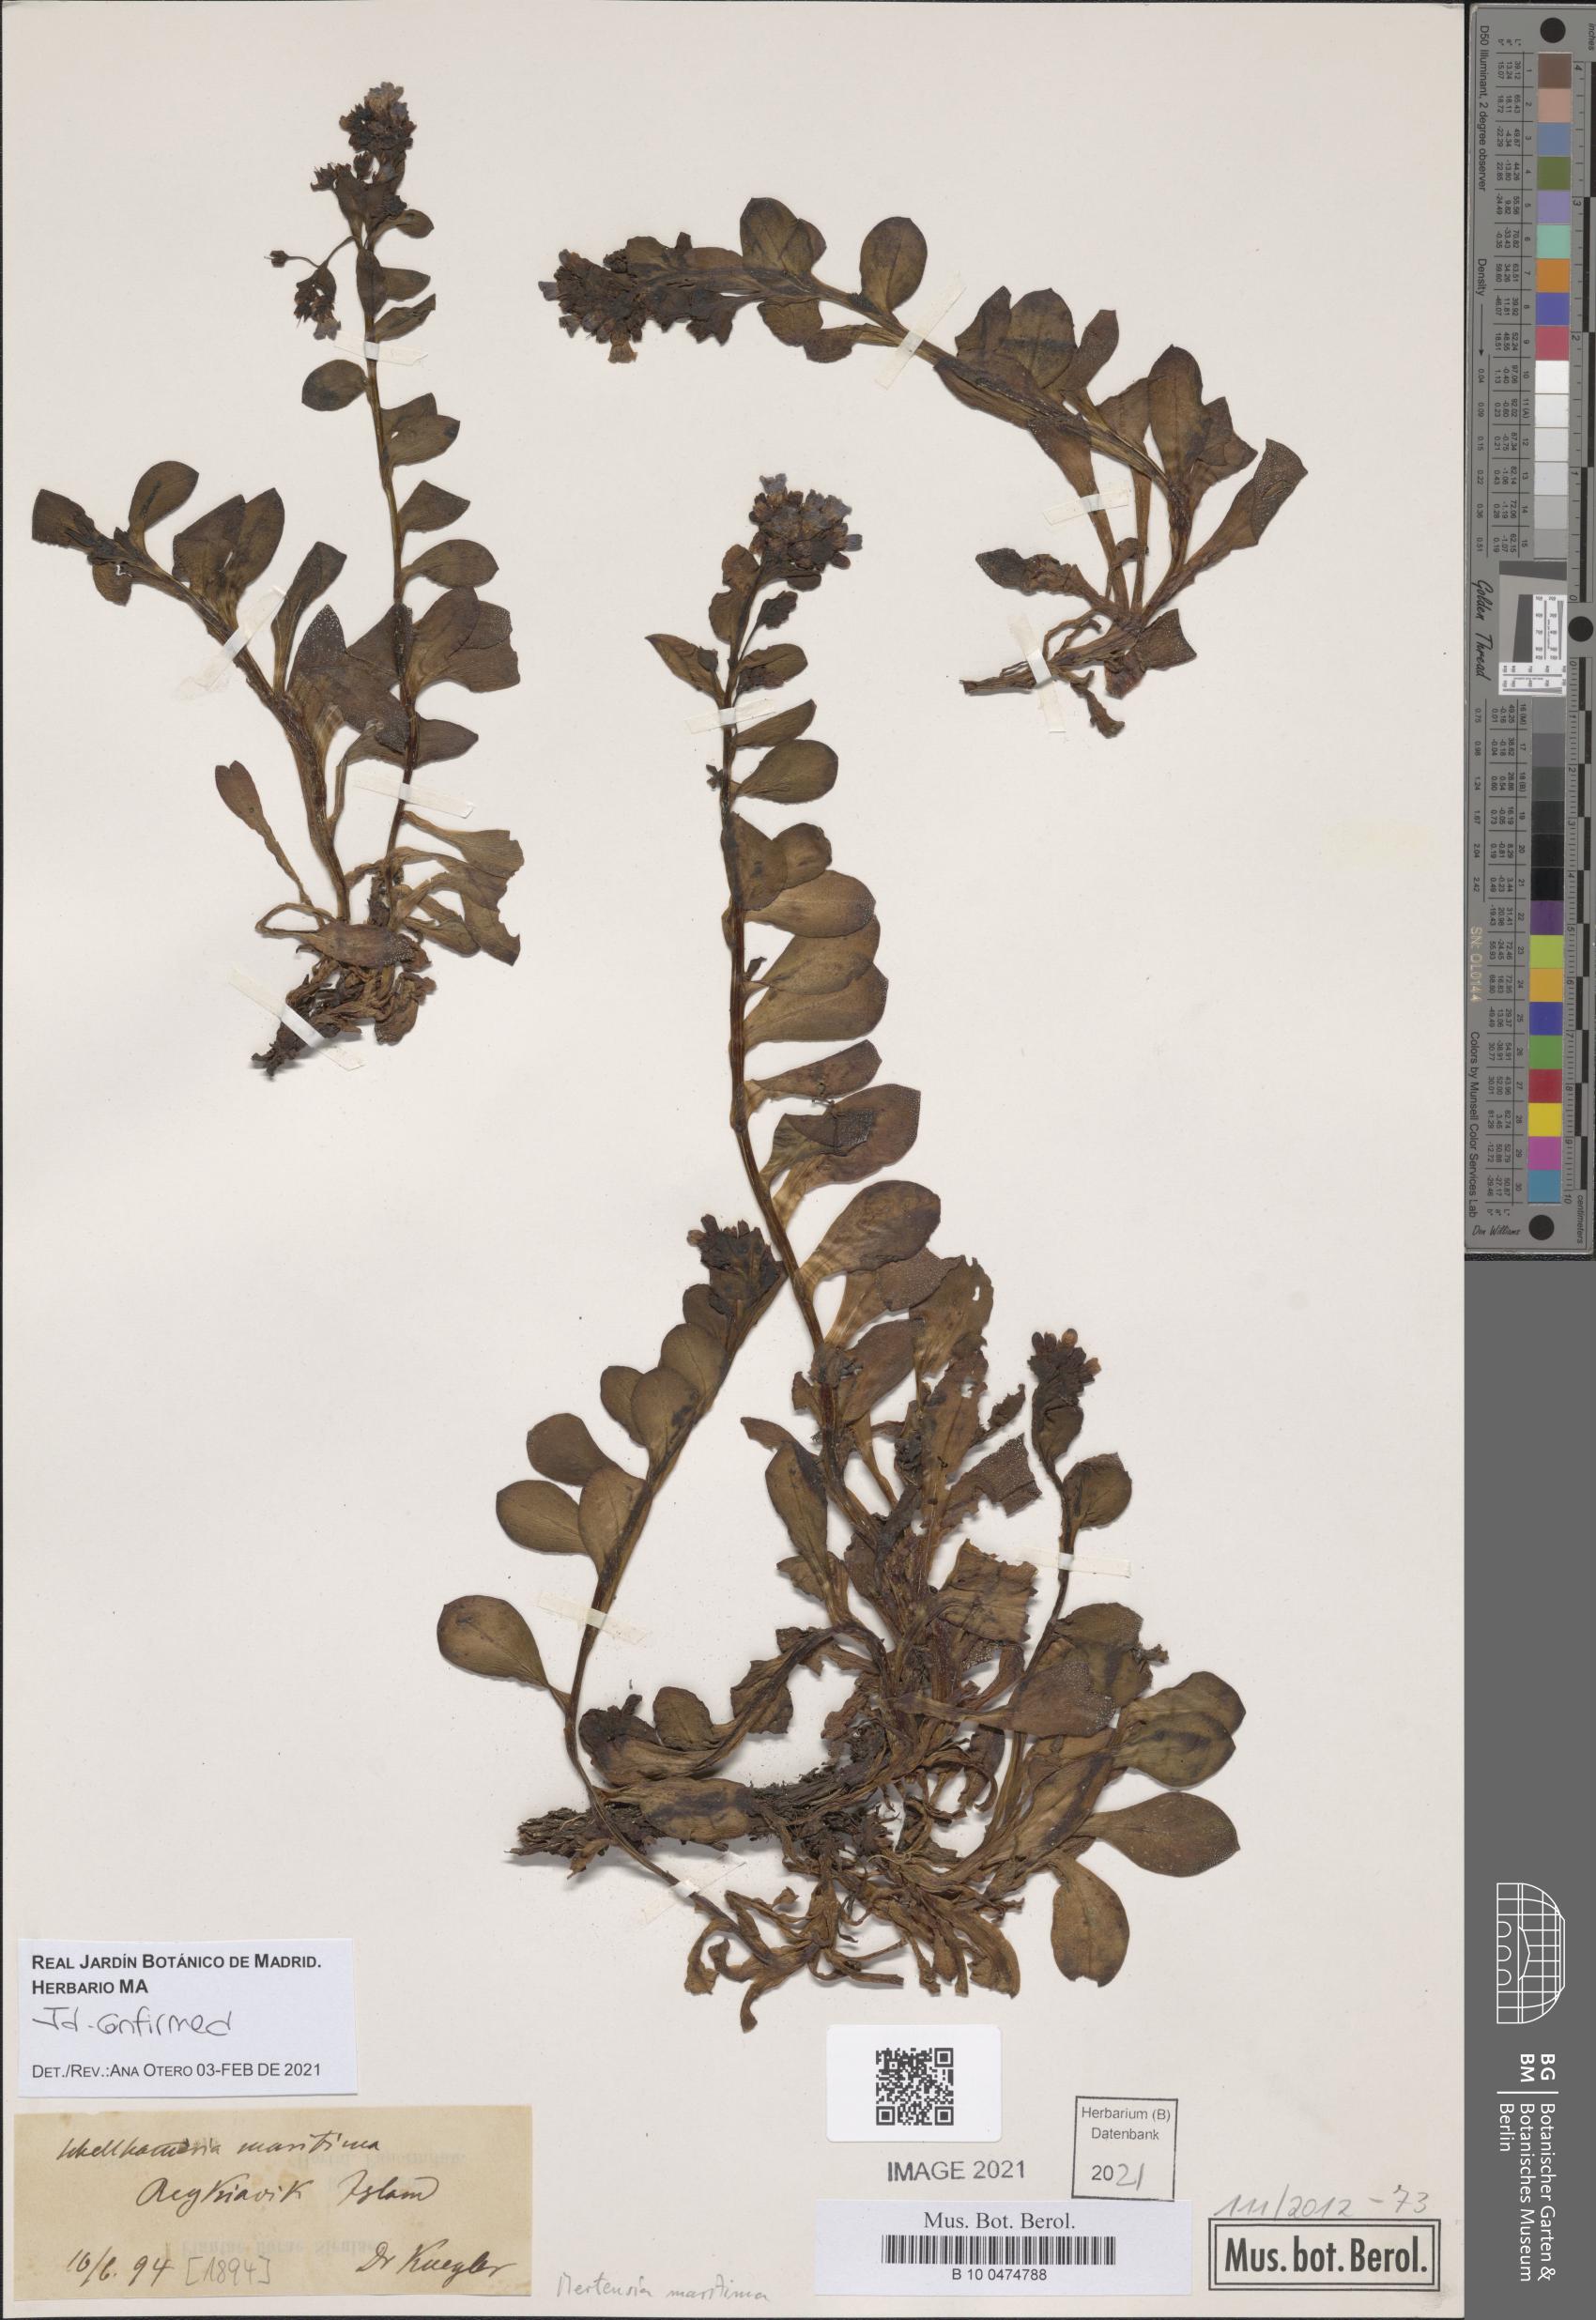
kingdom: Plantae
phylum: Tracheophyta
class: Magnoliopsida
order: Boraginales
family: Boraginaceae
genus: Mertensia
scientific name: Mertensia maritima
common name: Oysterplant
